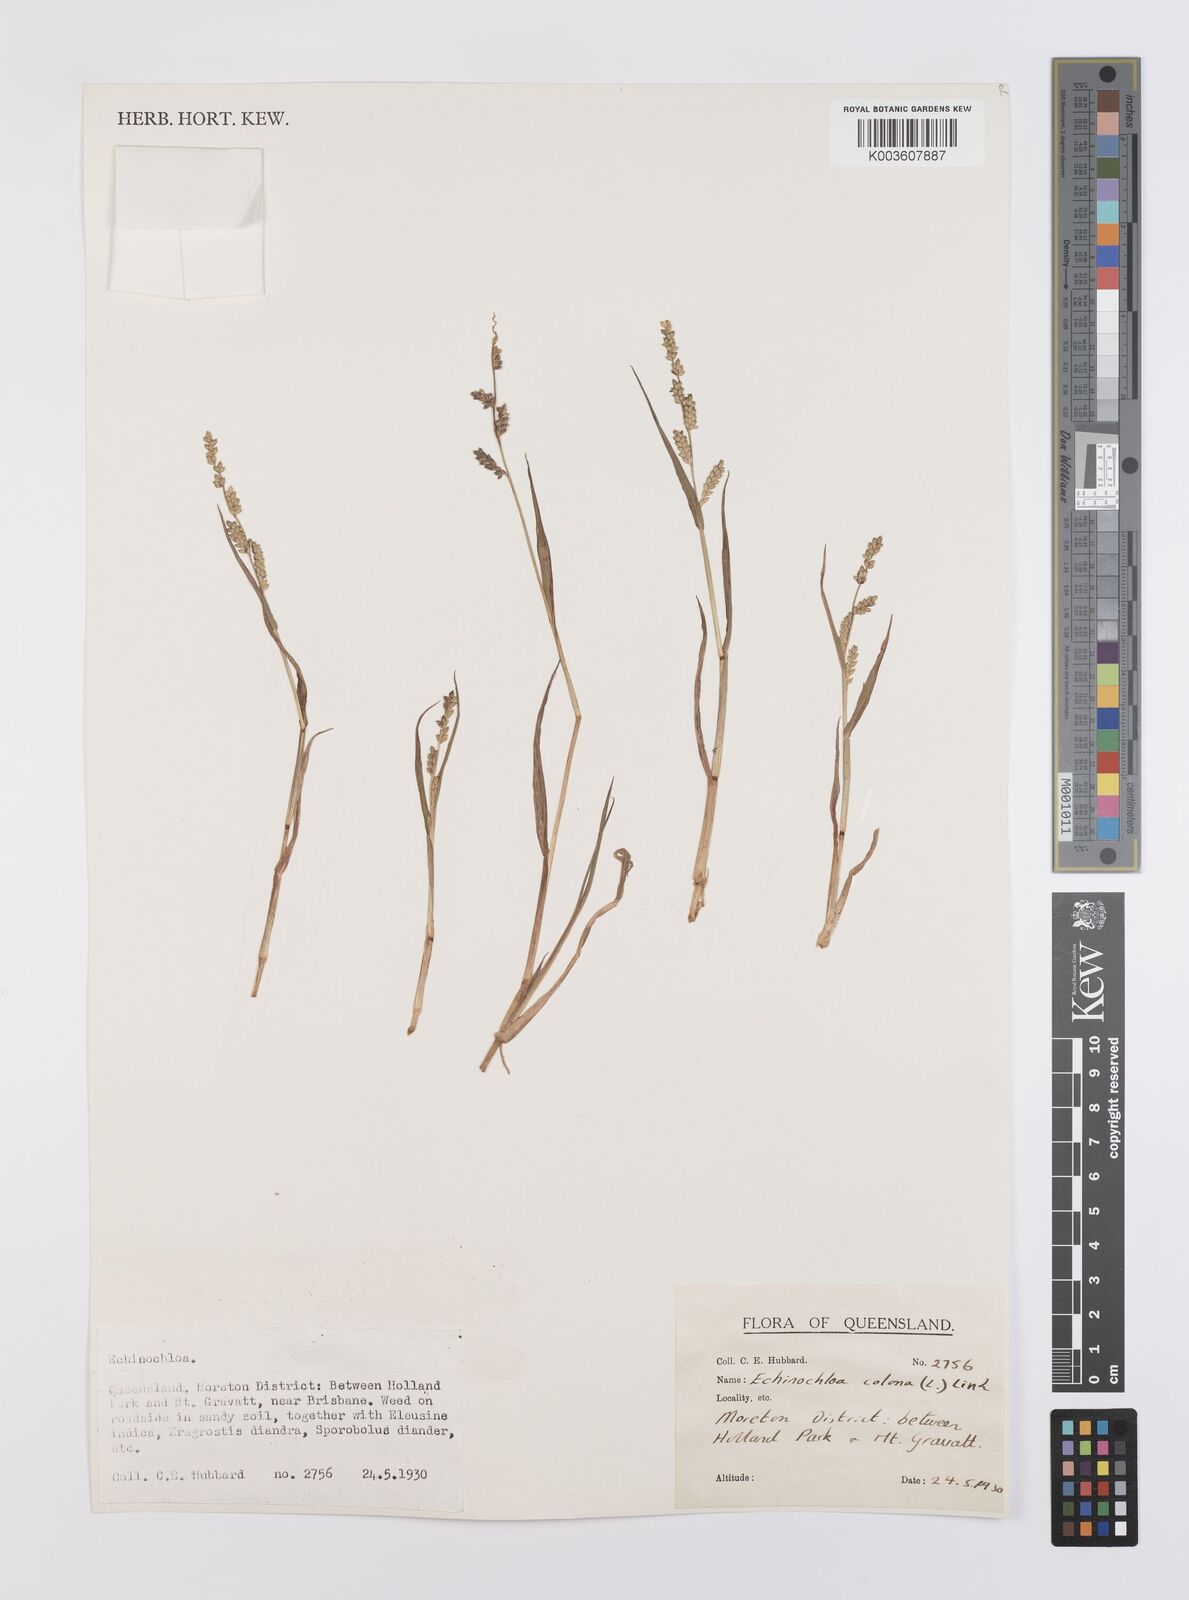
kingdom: Plantae
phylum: Tracheophyta
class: Liliopsida
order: Poales
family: Poaceae
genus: Echinochloa
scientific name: Echinochloa colonum
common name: Jungle rice
